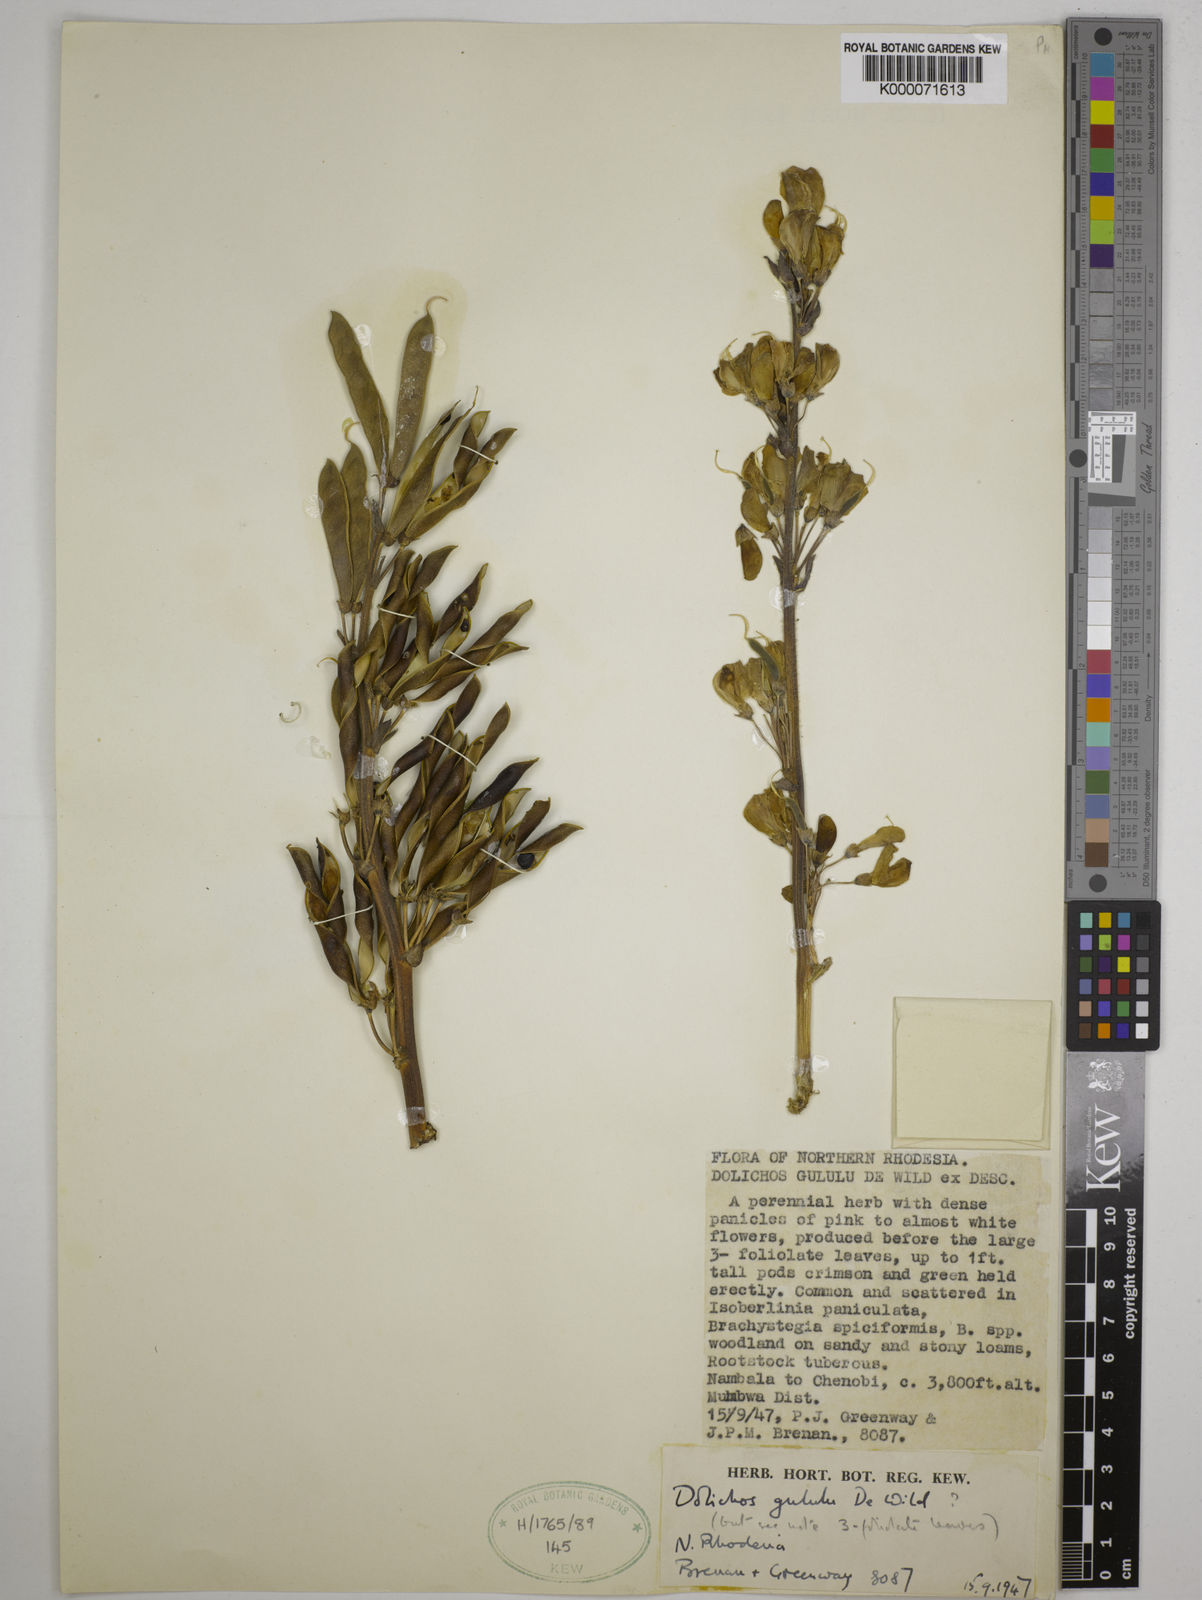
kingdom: Plantae
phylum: Tracheophyta
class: Magnoliopsida
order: Fabales
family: Fabaceae
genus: Dolichos
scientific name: Dolichos gululu
